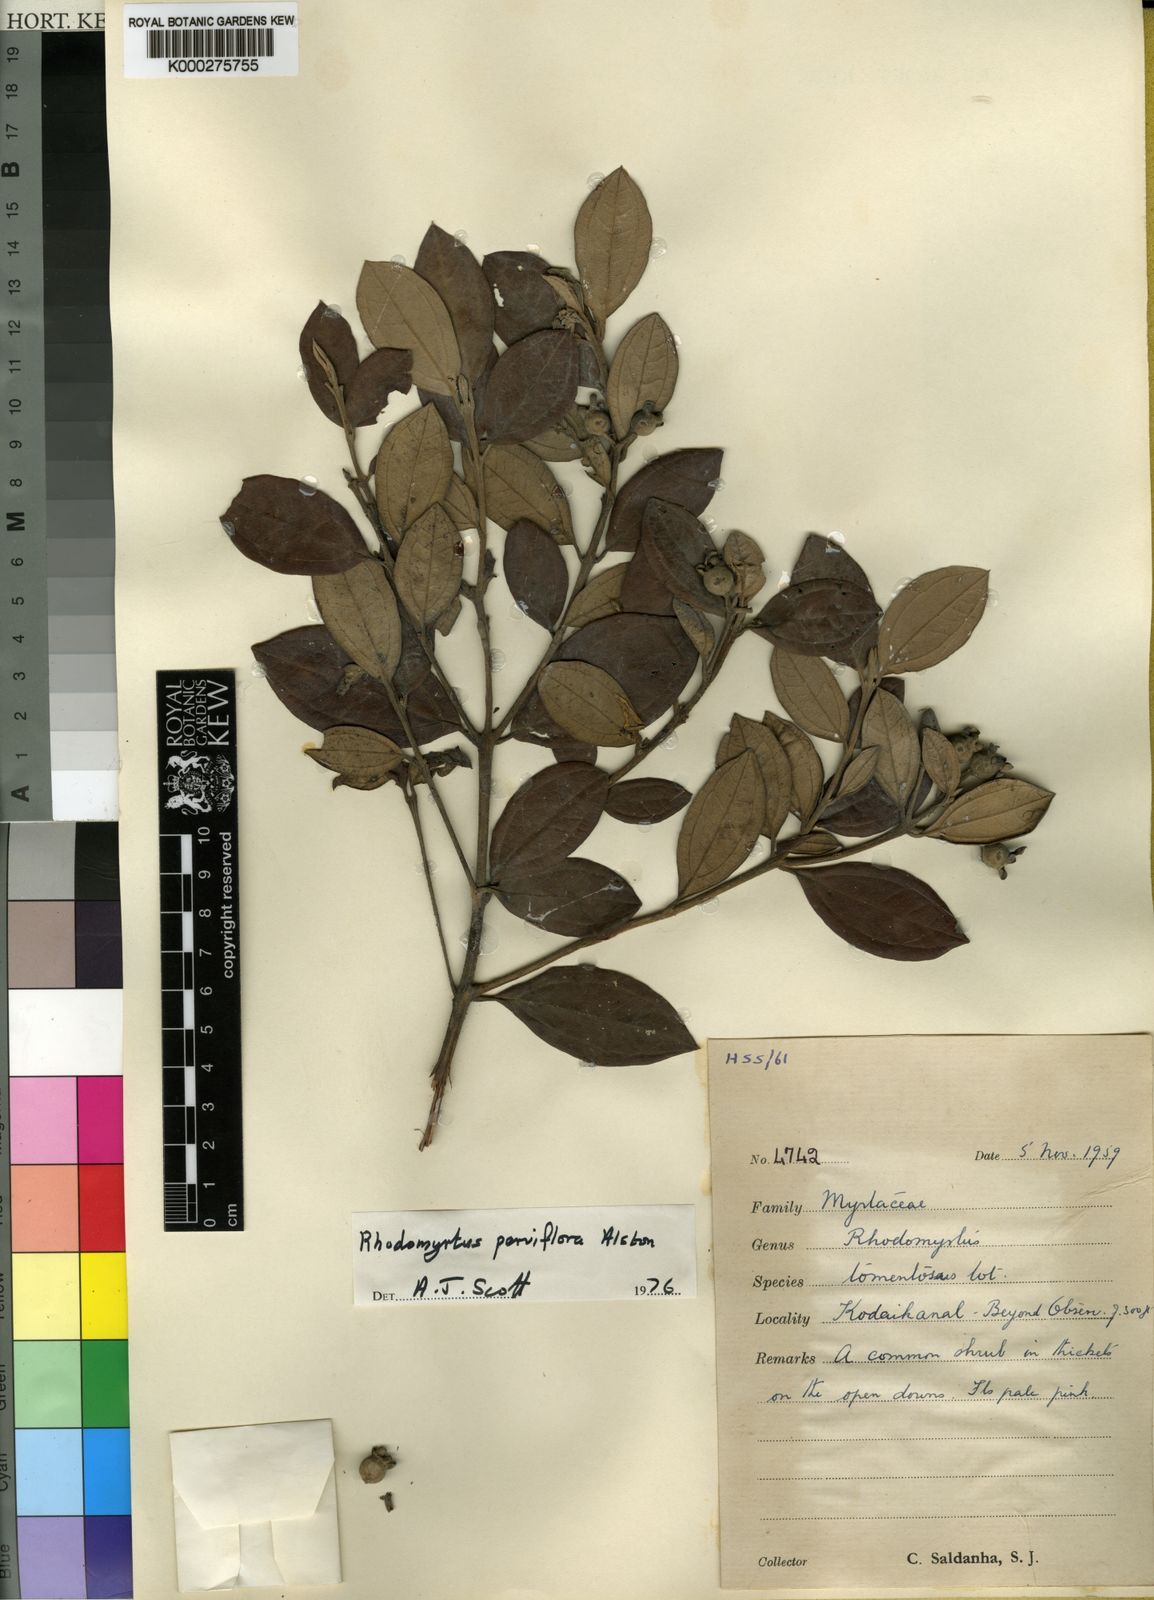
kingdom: Plantae
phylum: Tracheophyta
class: Magnoliopsida
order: Myrtales
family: Myrtaceae
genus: Rhodomyrtus
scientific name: Rhodomyrtus tomentosa
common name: Rose myrtle
